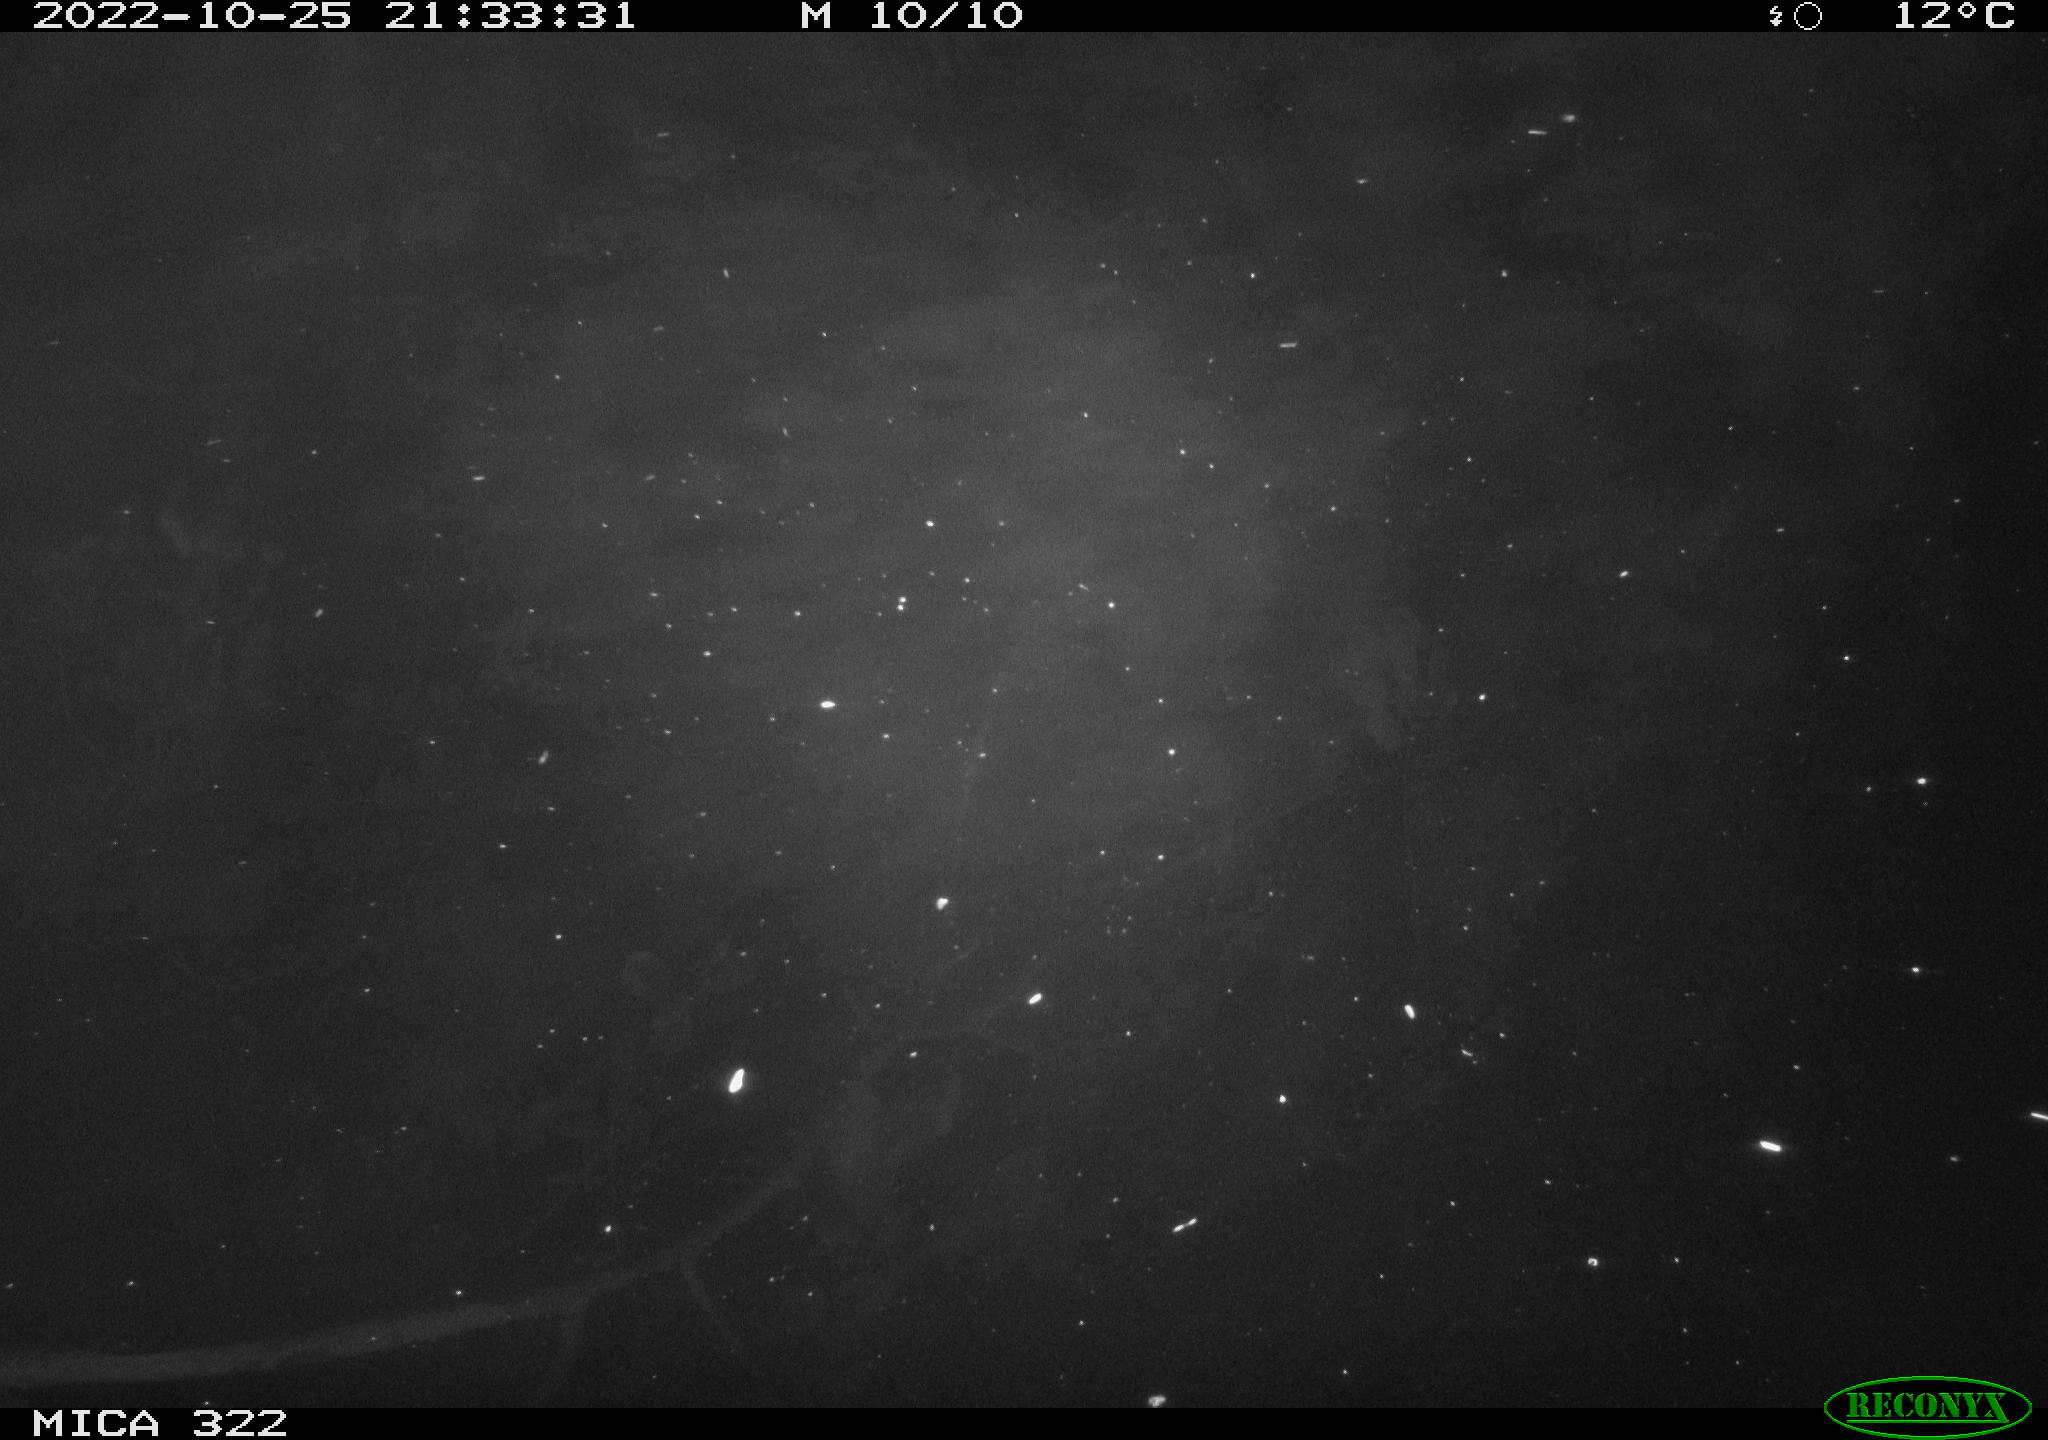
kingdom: Animalia
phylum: Chordata
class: Mammalia
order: Rodentia
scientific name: Rodentia
